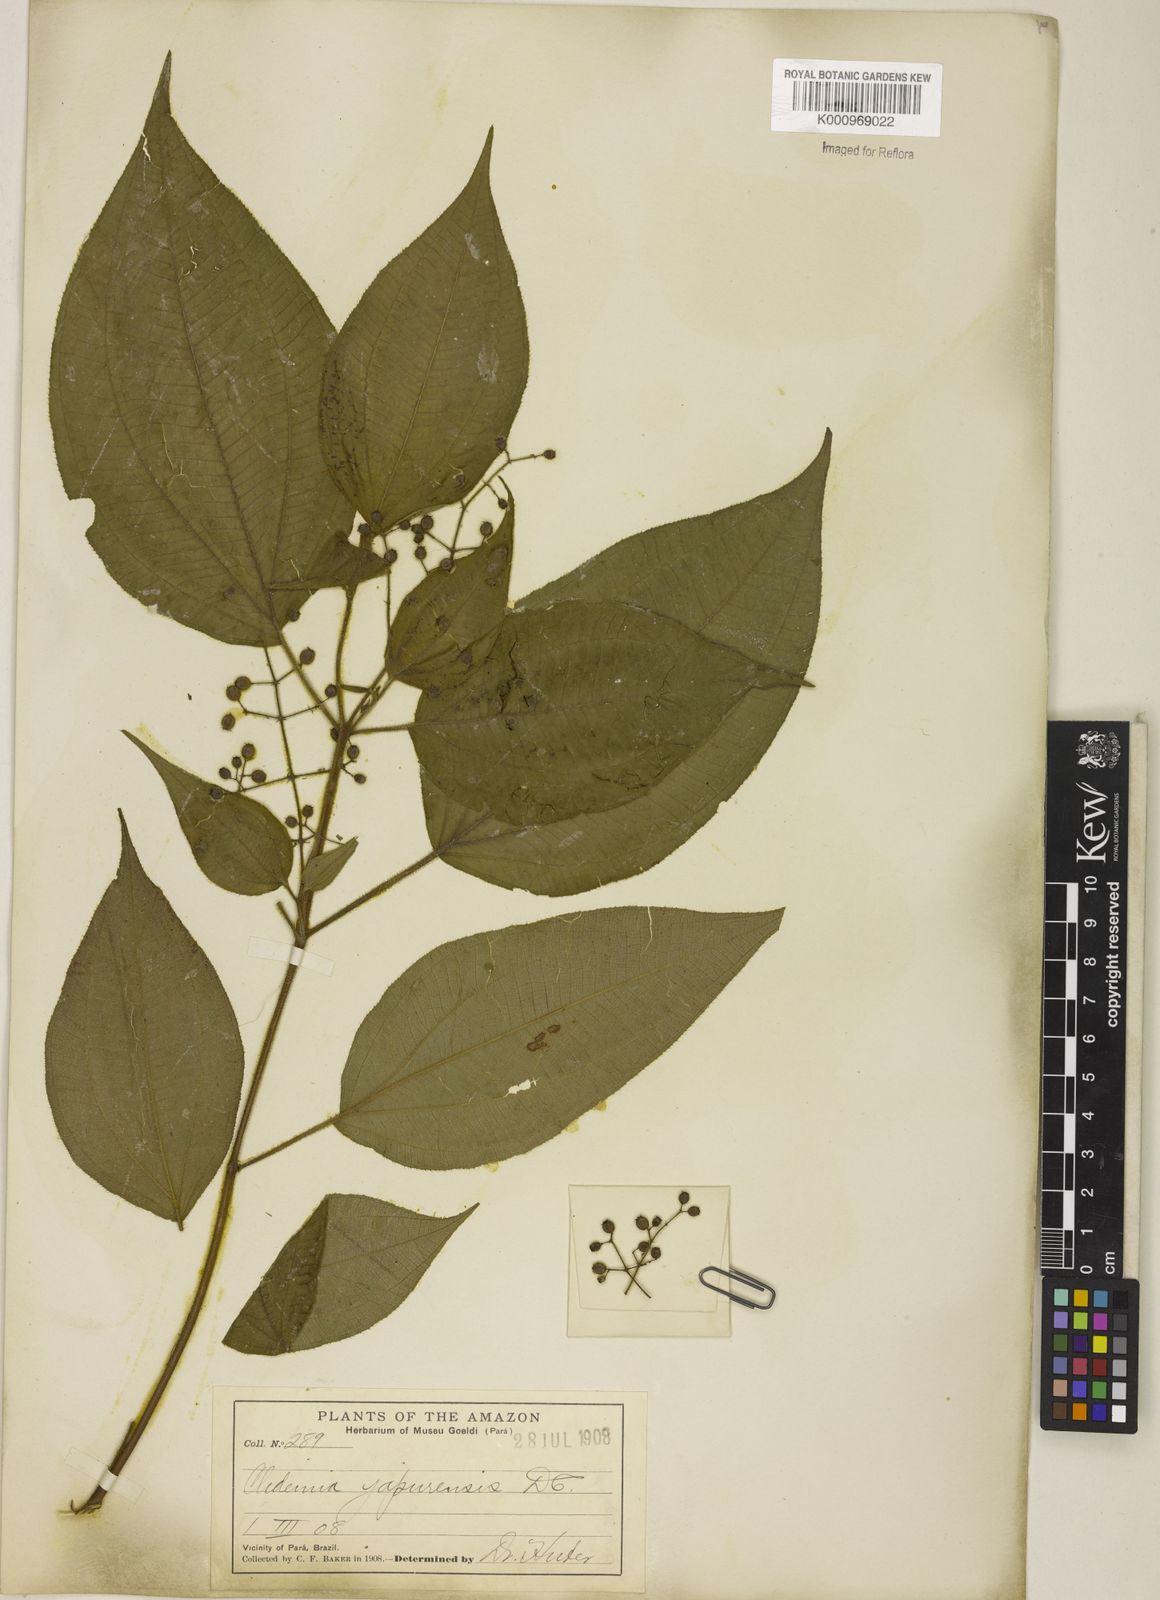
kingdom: Plantae
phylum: Tracheophyta
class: Magnoliopsida
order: Myrtales
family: Melastomataceae
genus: Miconia
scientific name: Miconia heteroclita
